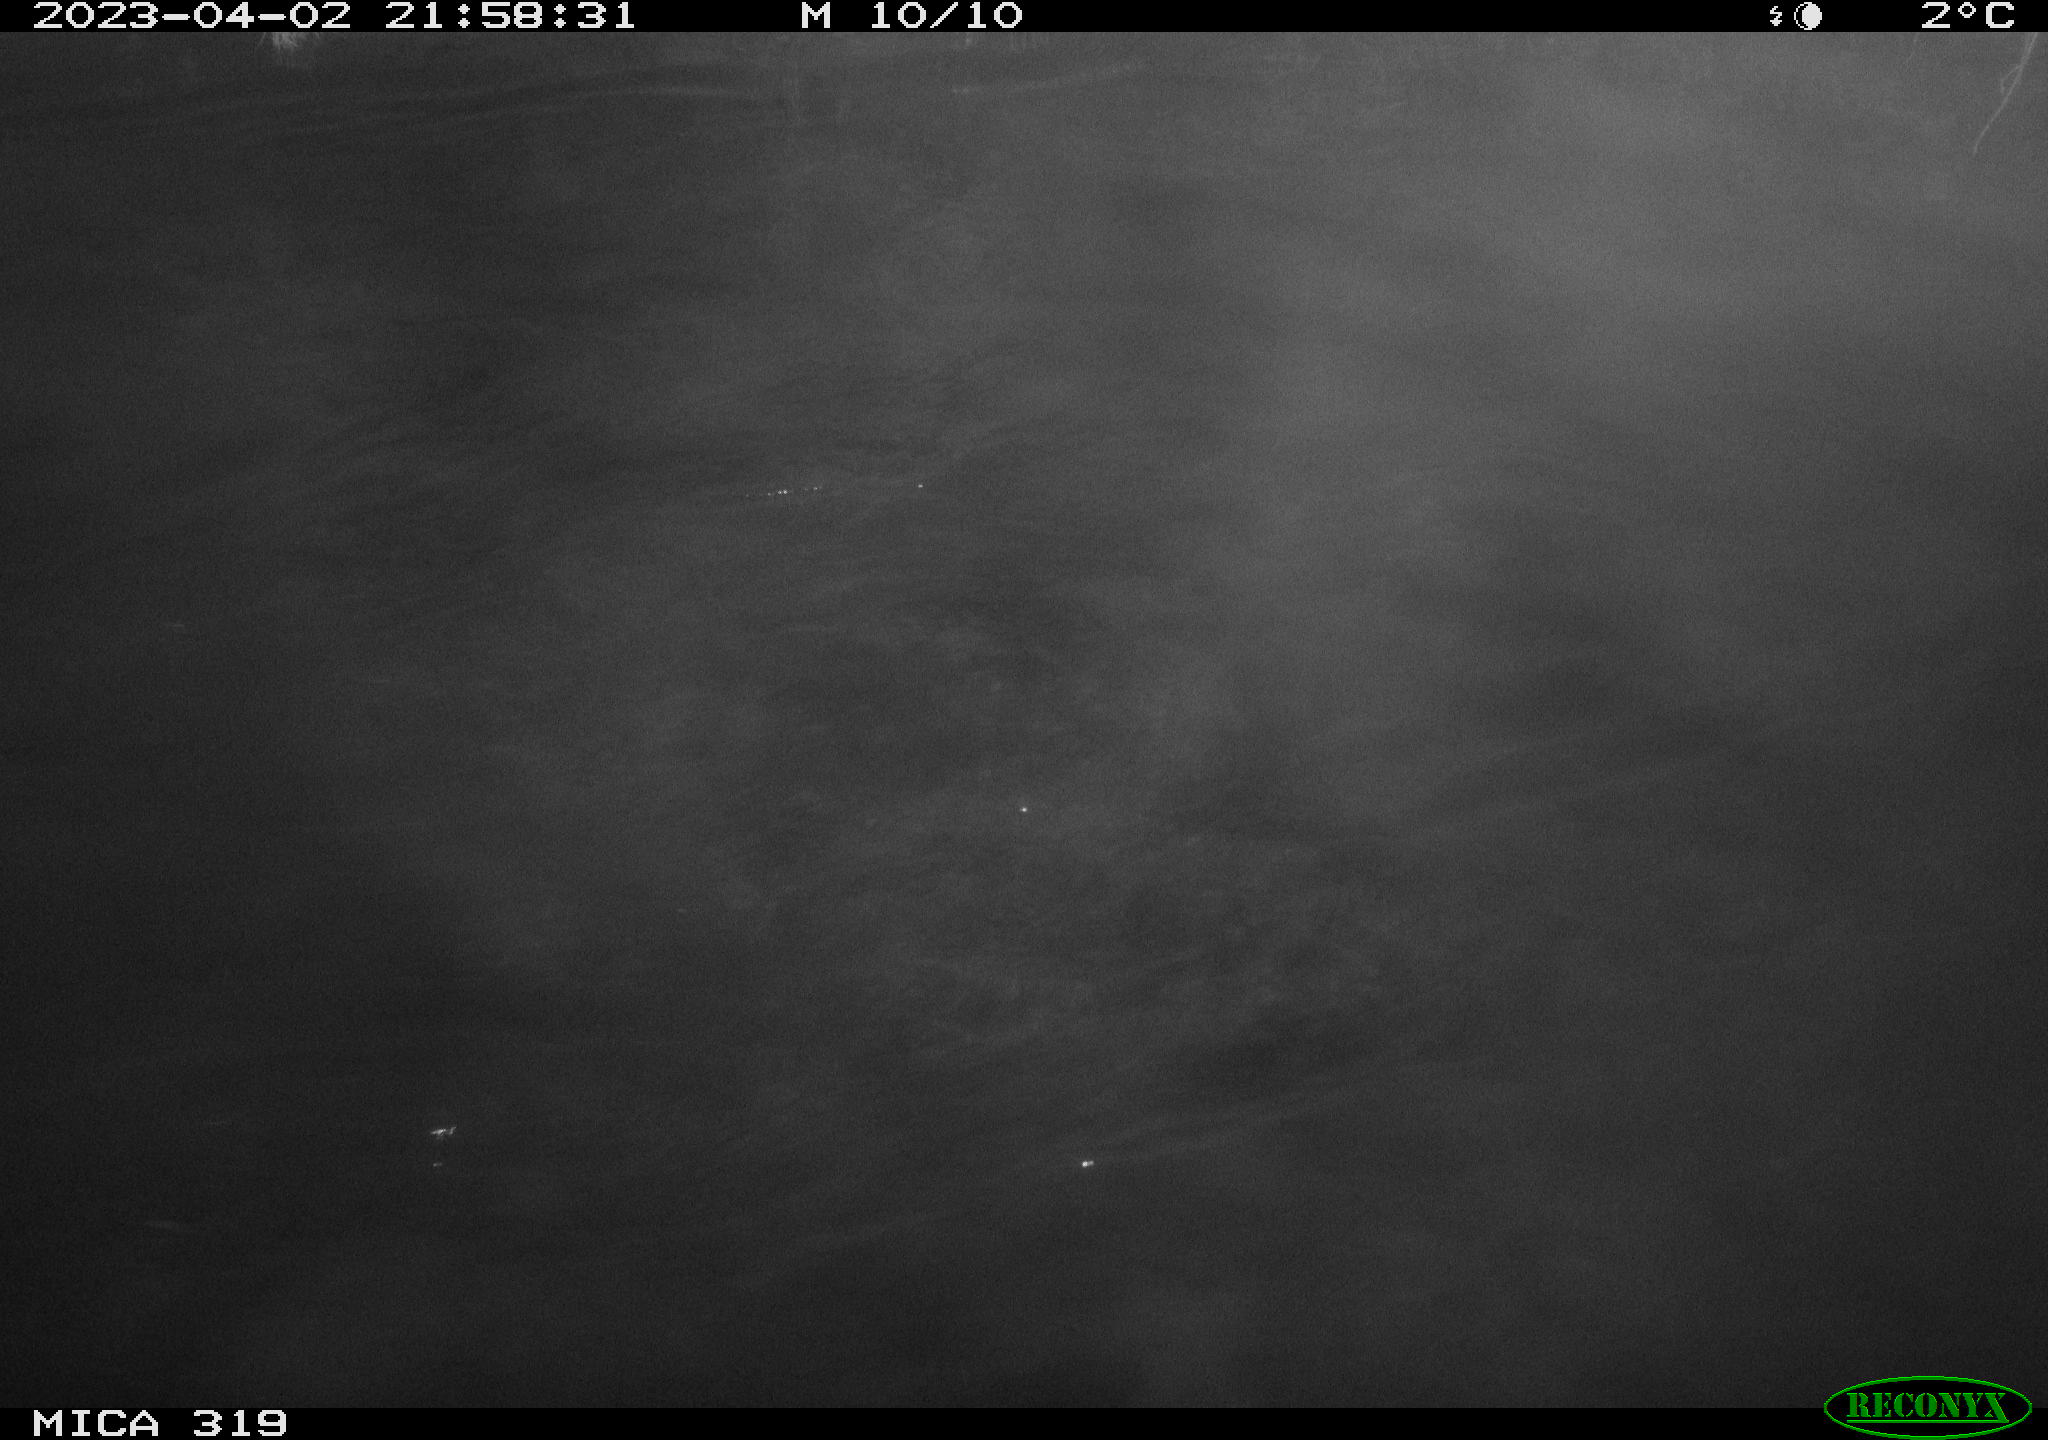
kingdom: Animalia
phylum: Chordata
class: Aves
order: Anseriformes
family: Anatidae
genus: Anas
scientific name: Anas
